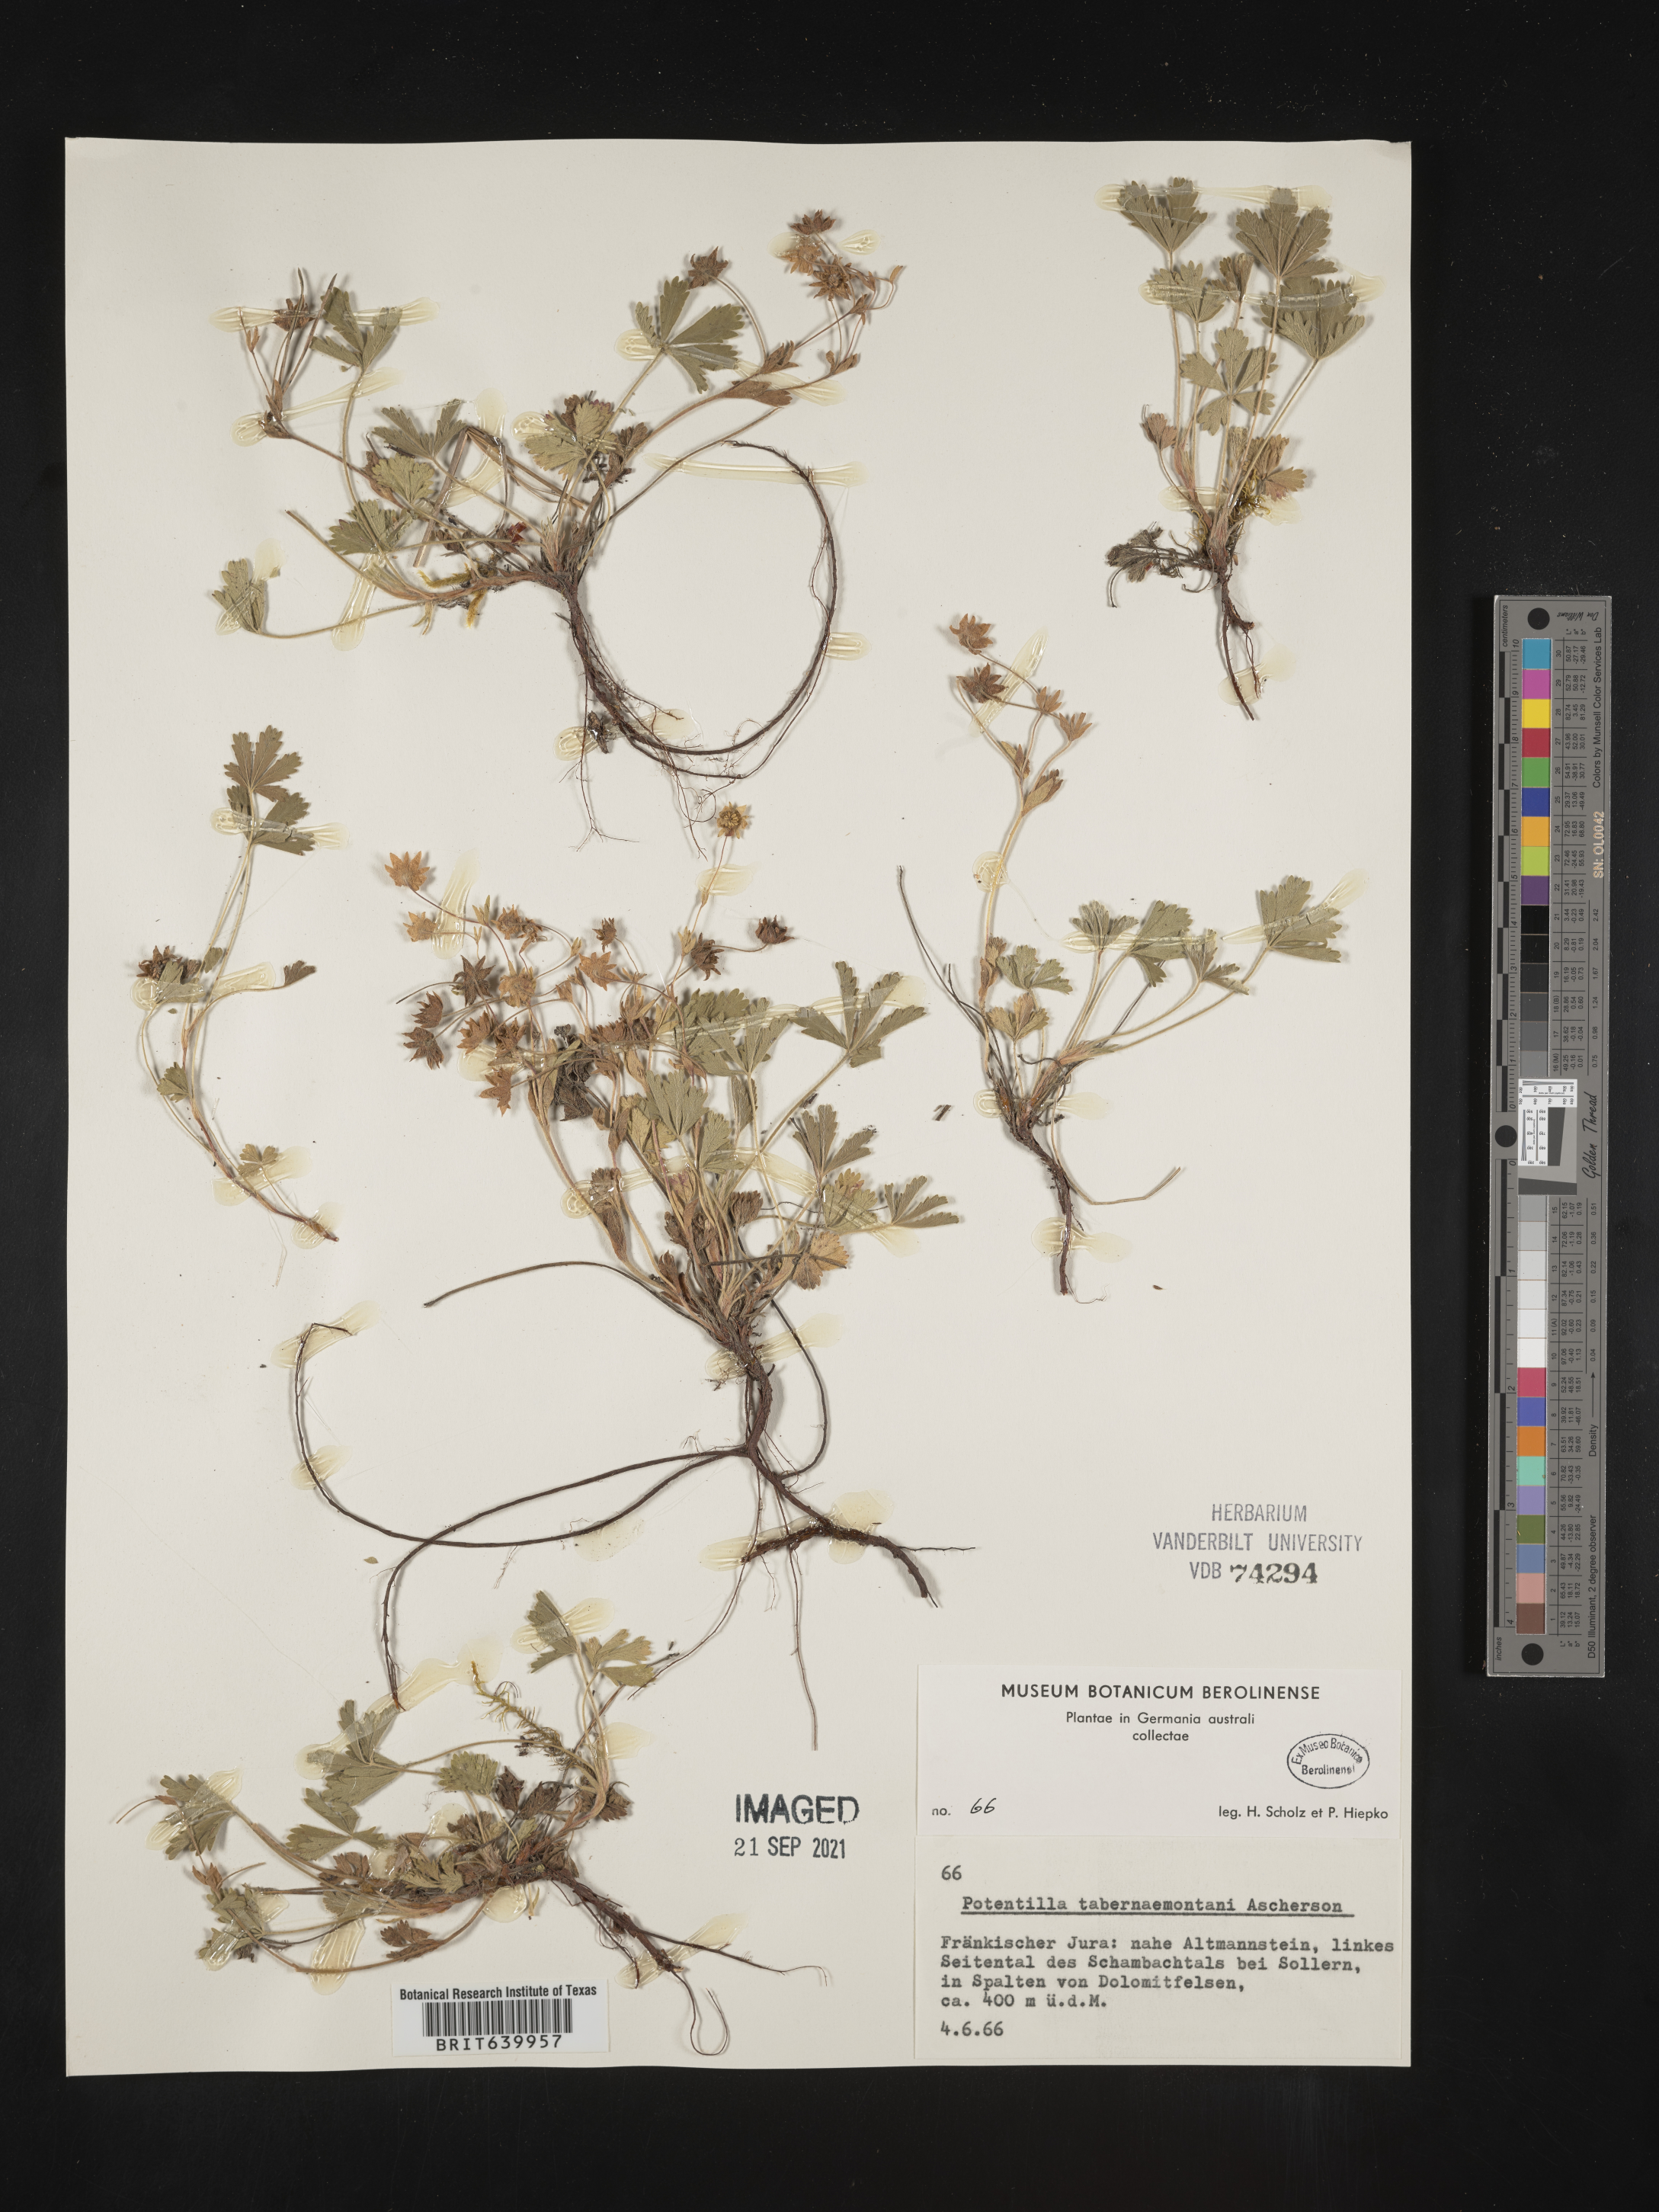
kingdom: Plantae
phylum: Tracheophyta
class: Magnoliopsida
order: Rosales
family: Rosaceae
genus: Potentilla
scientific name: Potentilla
